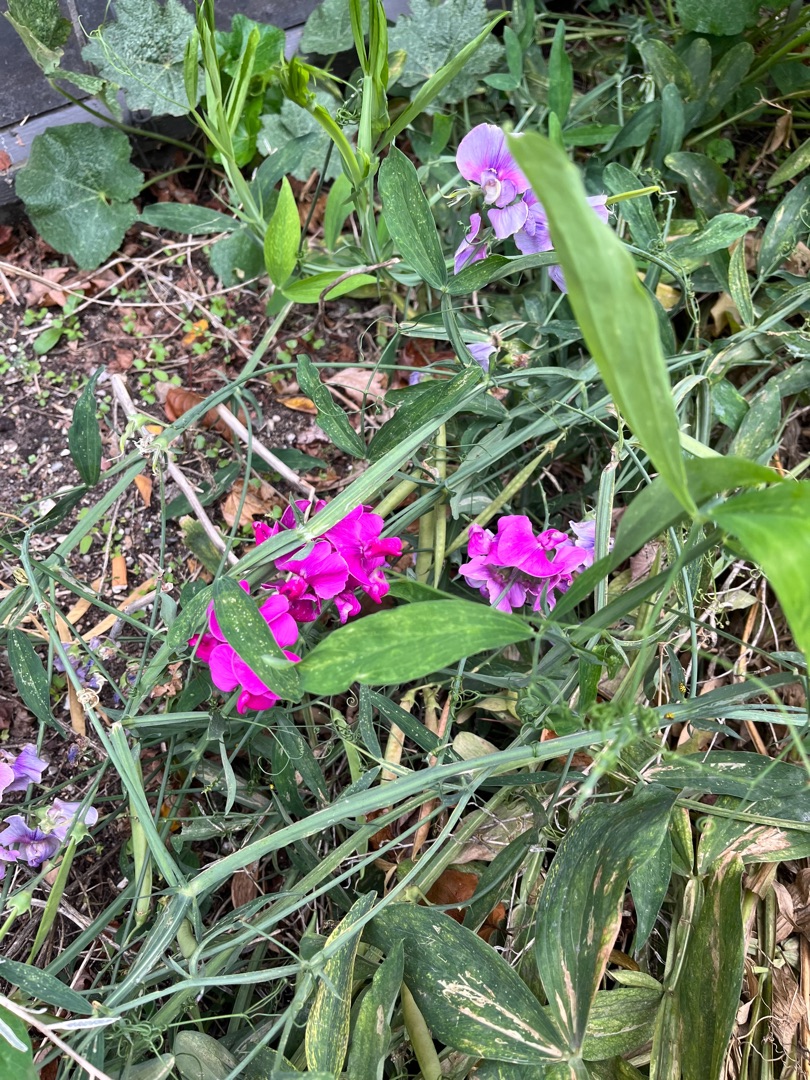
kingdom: Plantae
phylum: Tracheophyta
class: Magnoliopsida
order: Fabales
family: Fabaceae
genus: Lathyrus
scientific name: Lathyrus latifolius
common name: Flerårig ærteblomst
